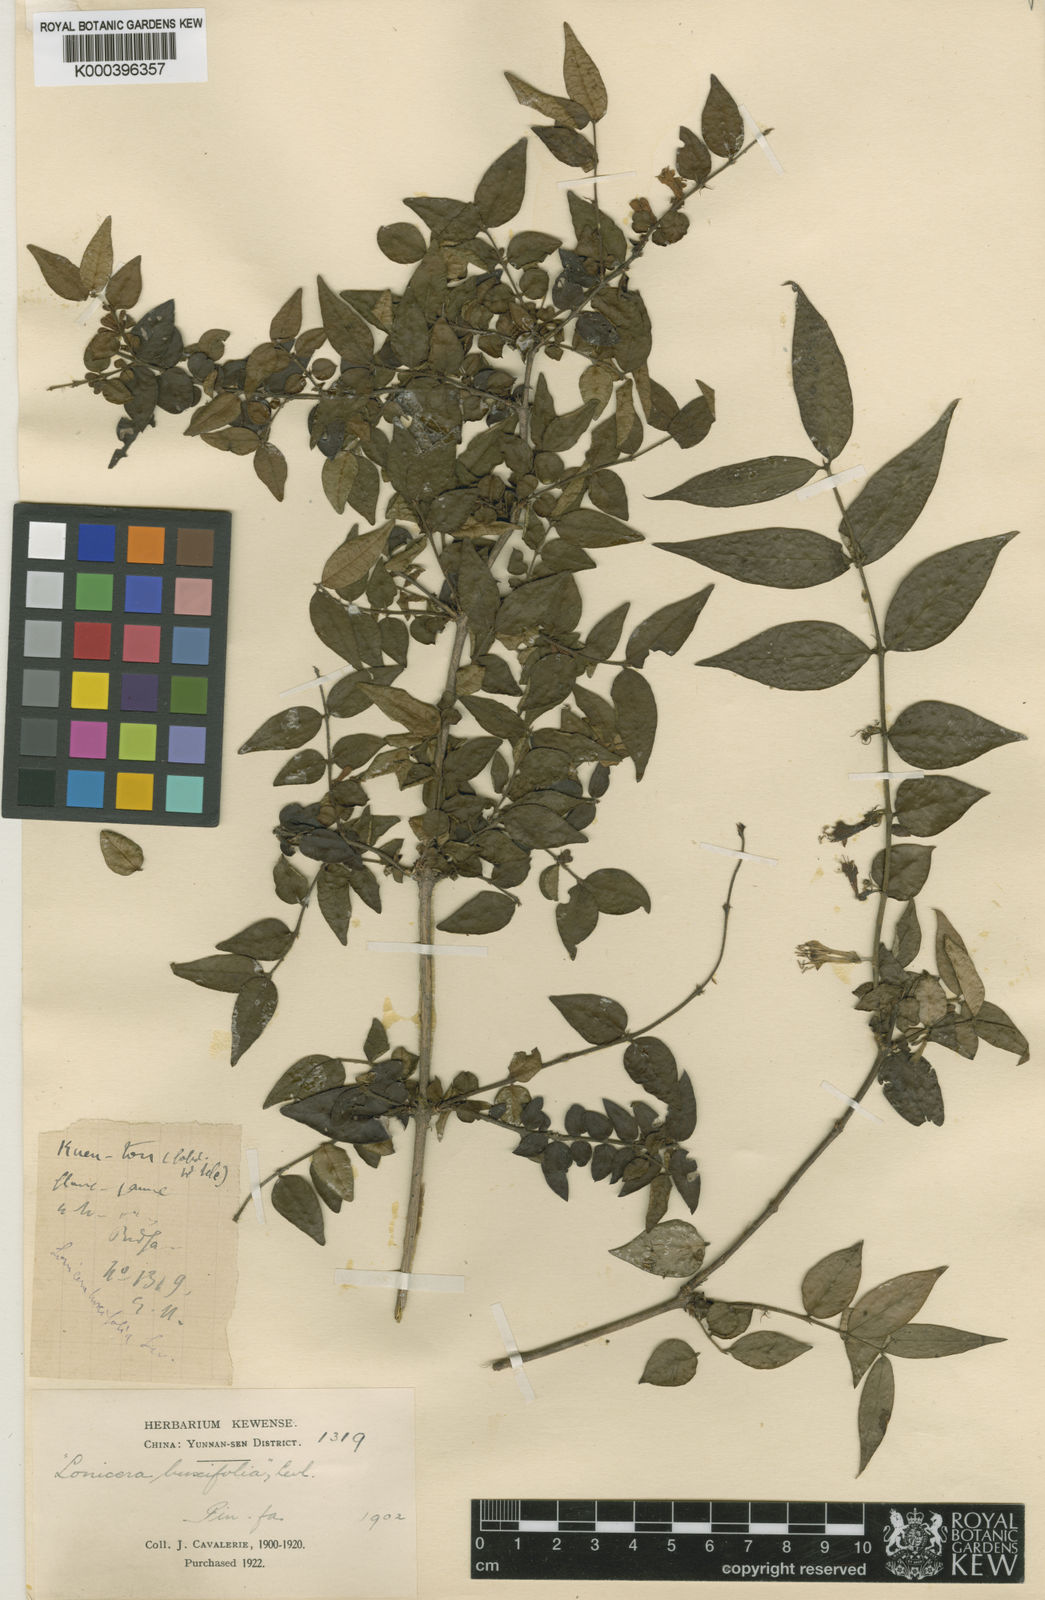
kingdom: Plantae
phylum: Tracheophyta
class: Magnoliopsida
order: Dipsacales
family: Caprifoliaceae
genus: Lonicera
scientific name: Lonicera
